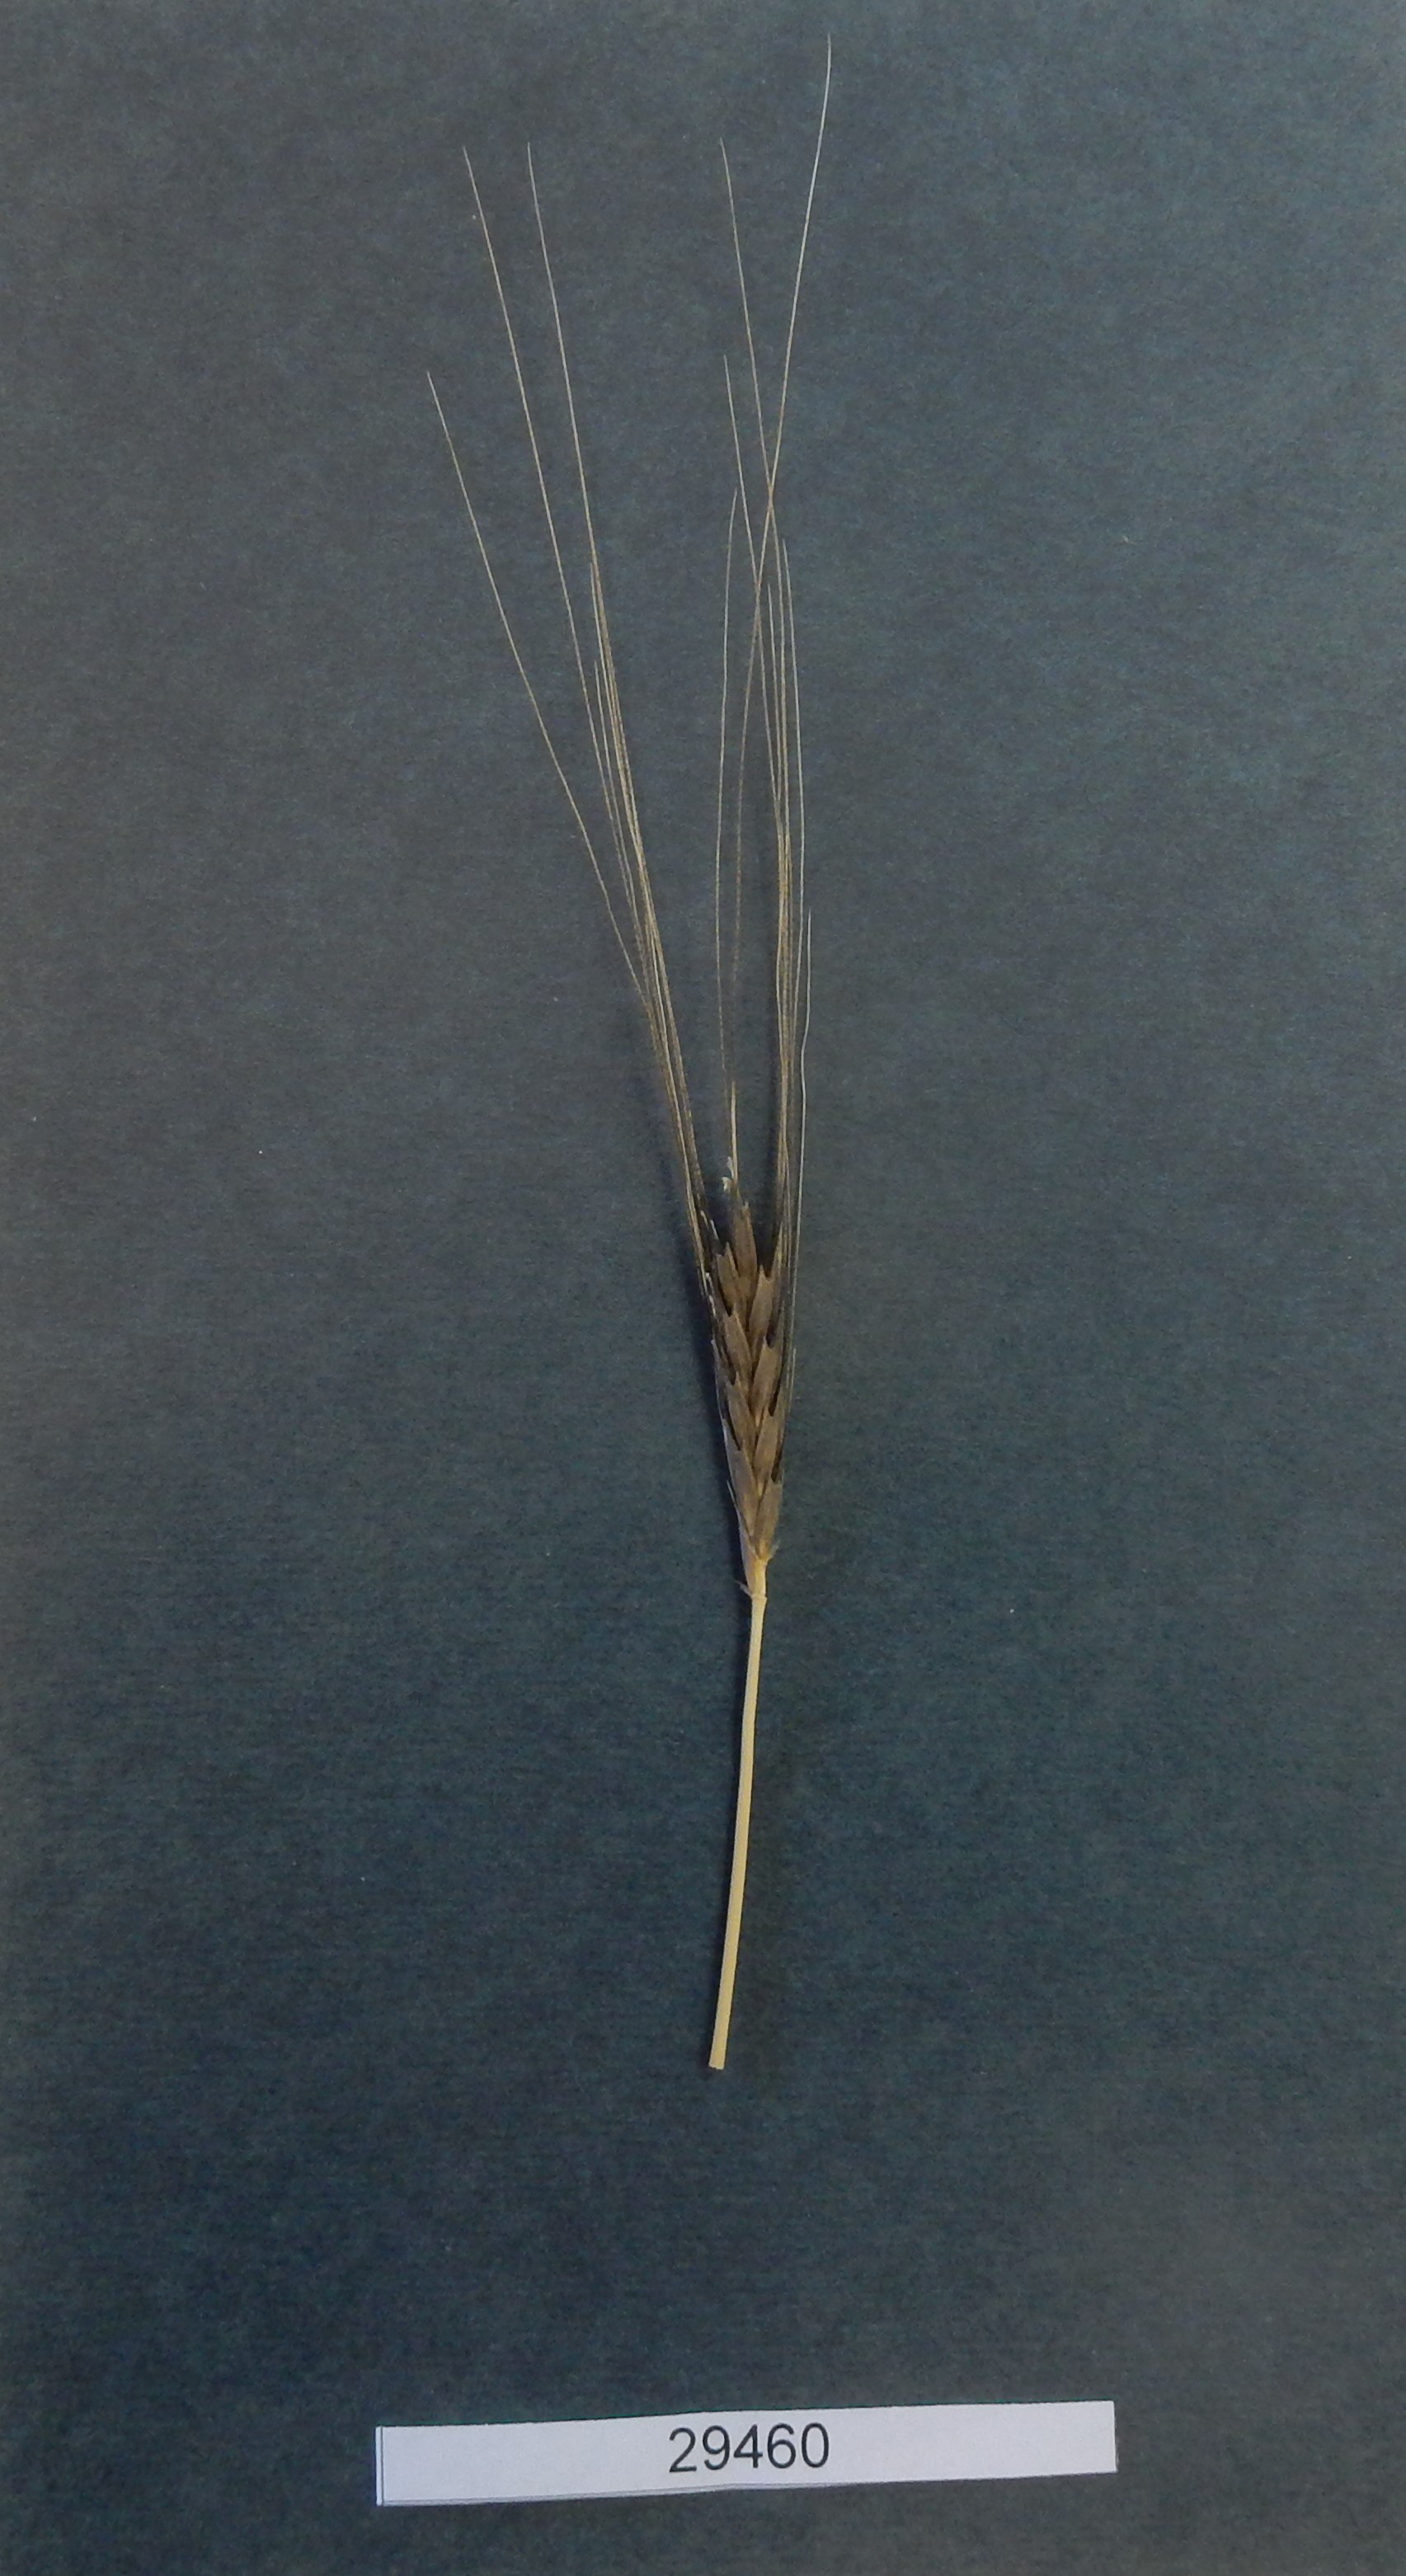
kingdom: Plantae
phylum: Tracheophyta
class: Liliopsida
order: Poales
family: Poaceae
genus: Triticum
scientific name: Triticum monococcum
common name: Wheat
